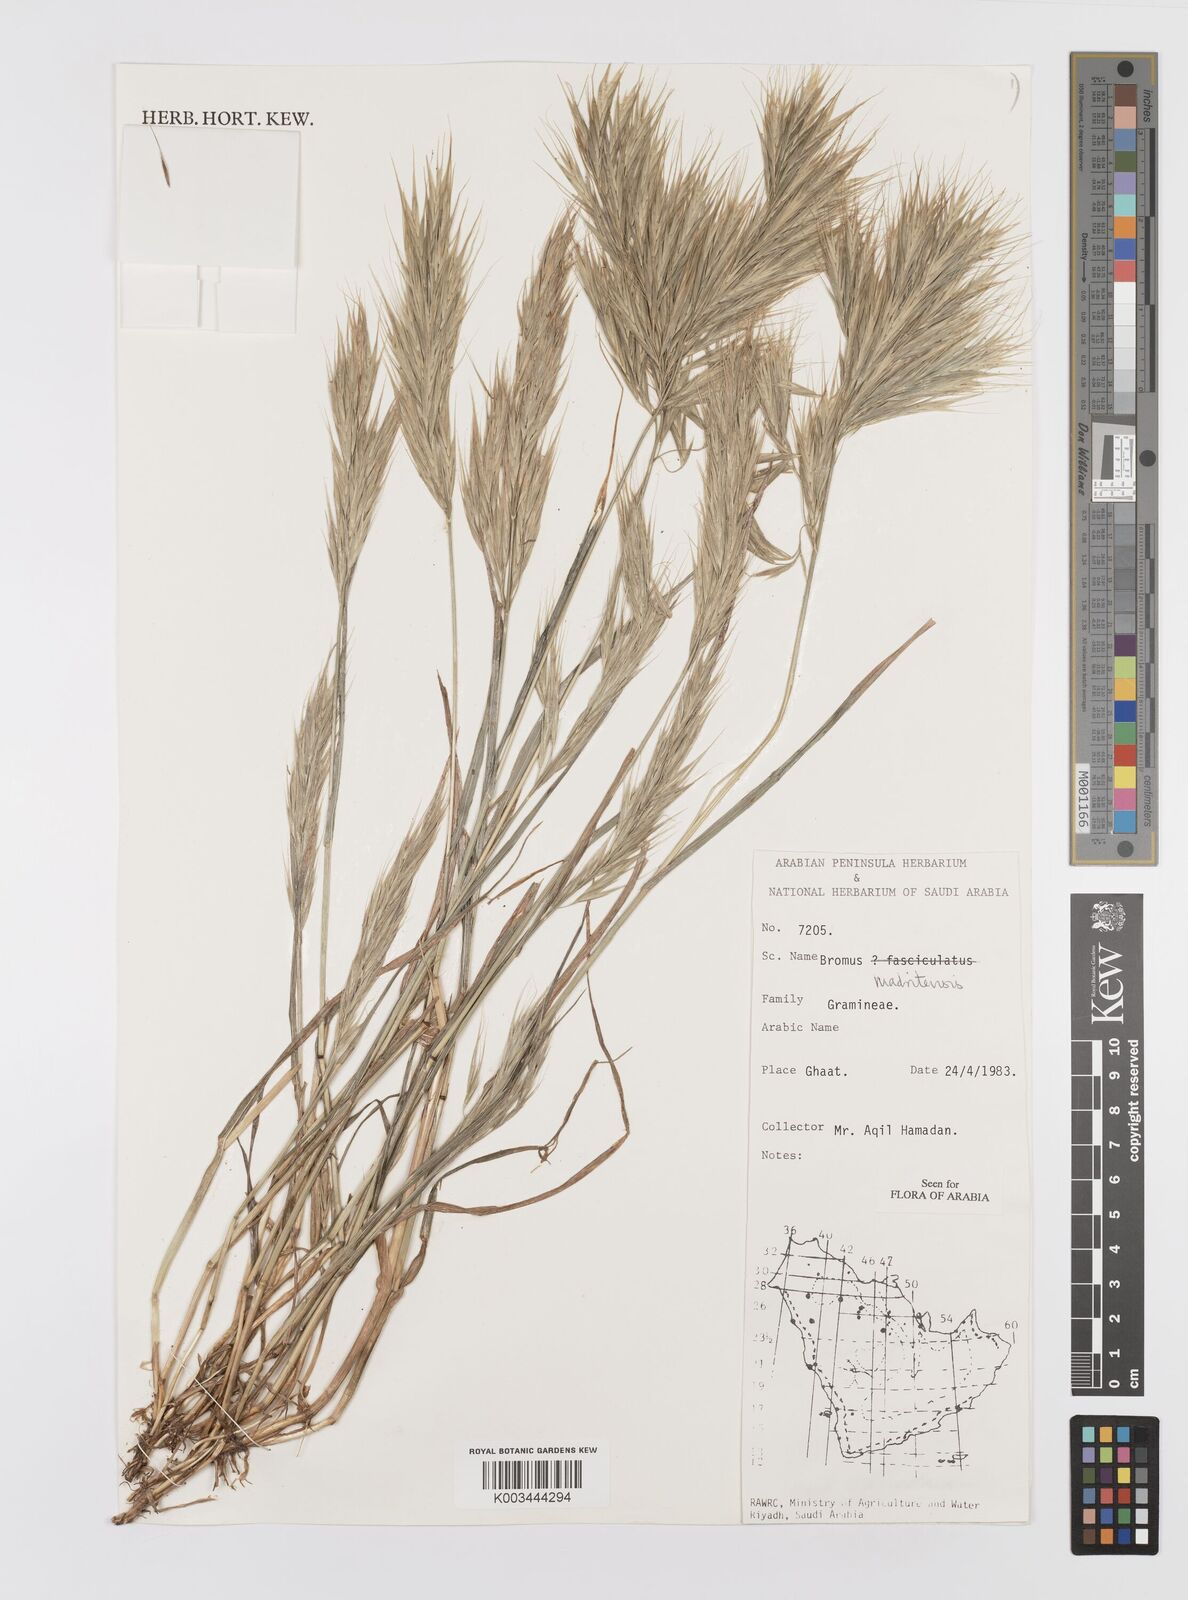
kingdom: Plantae
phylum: Tracheophyta
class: Liliopsida
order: Poales
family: Poaceae
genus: Bromus
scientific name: Bromus madritensis
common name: Compact brome
